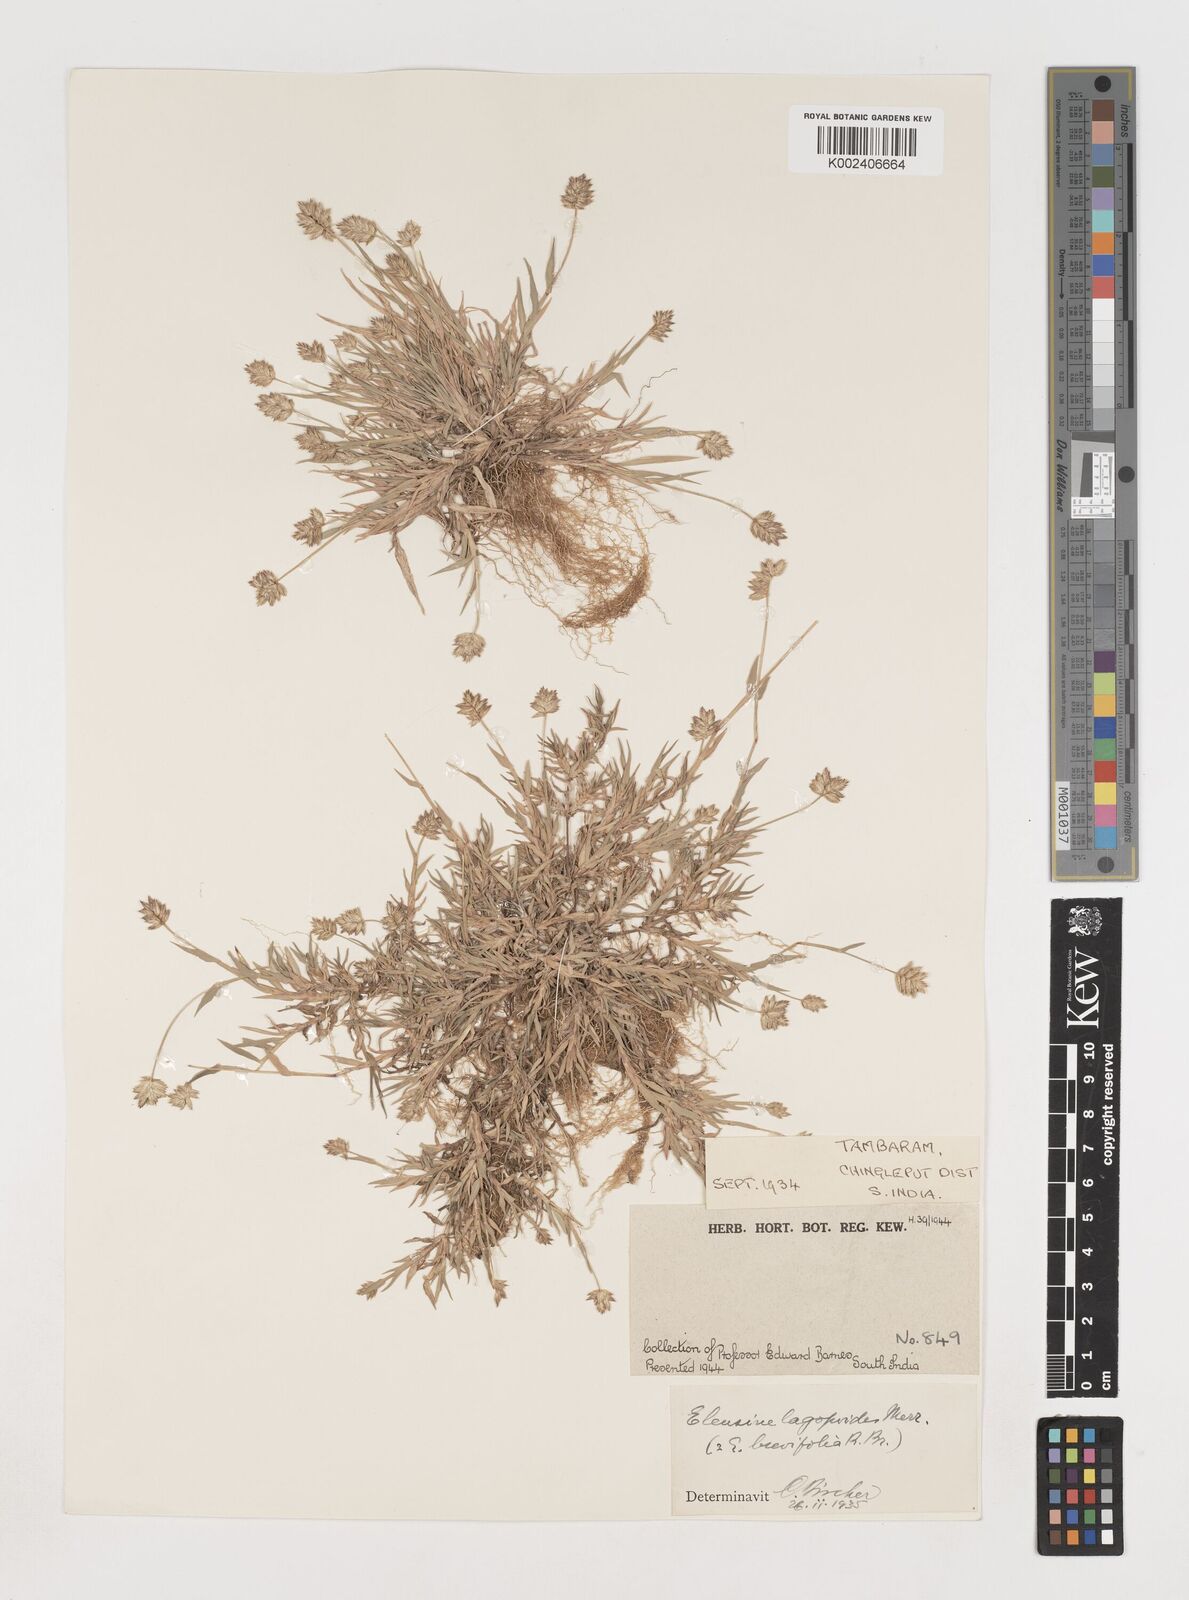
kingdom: Plantae
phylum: Tracheophyta
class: Liliopsida
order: Poales
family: Poaceae
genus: Coelachyrum
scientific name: Coelachyrum lagopoides
